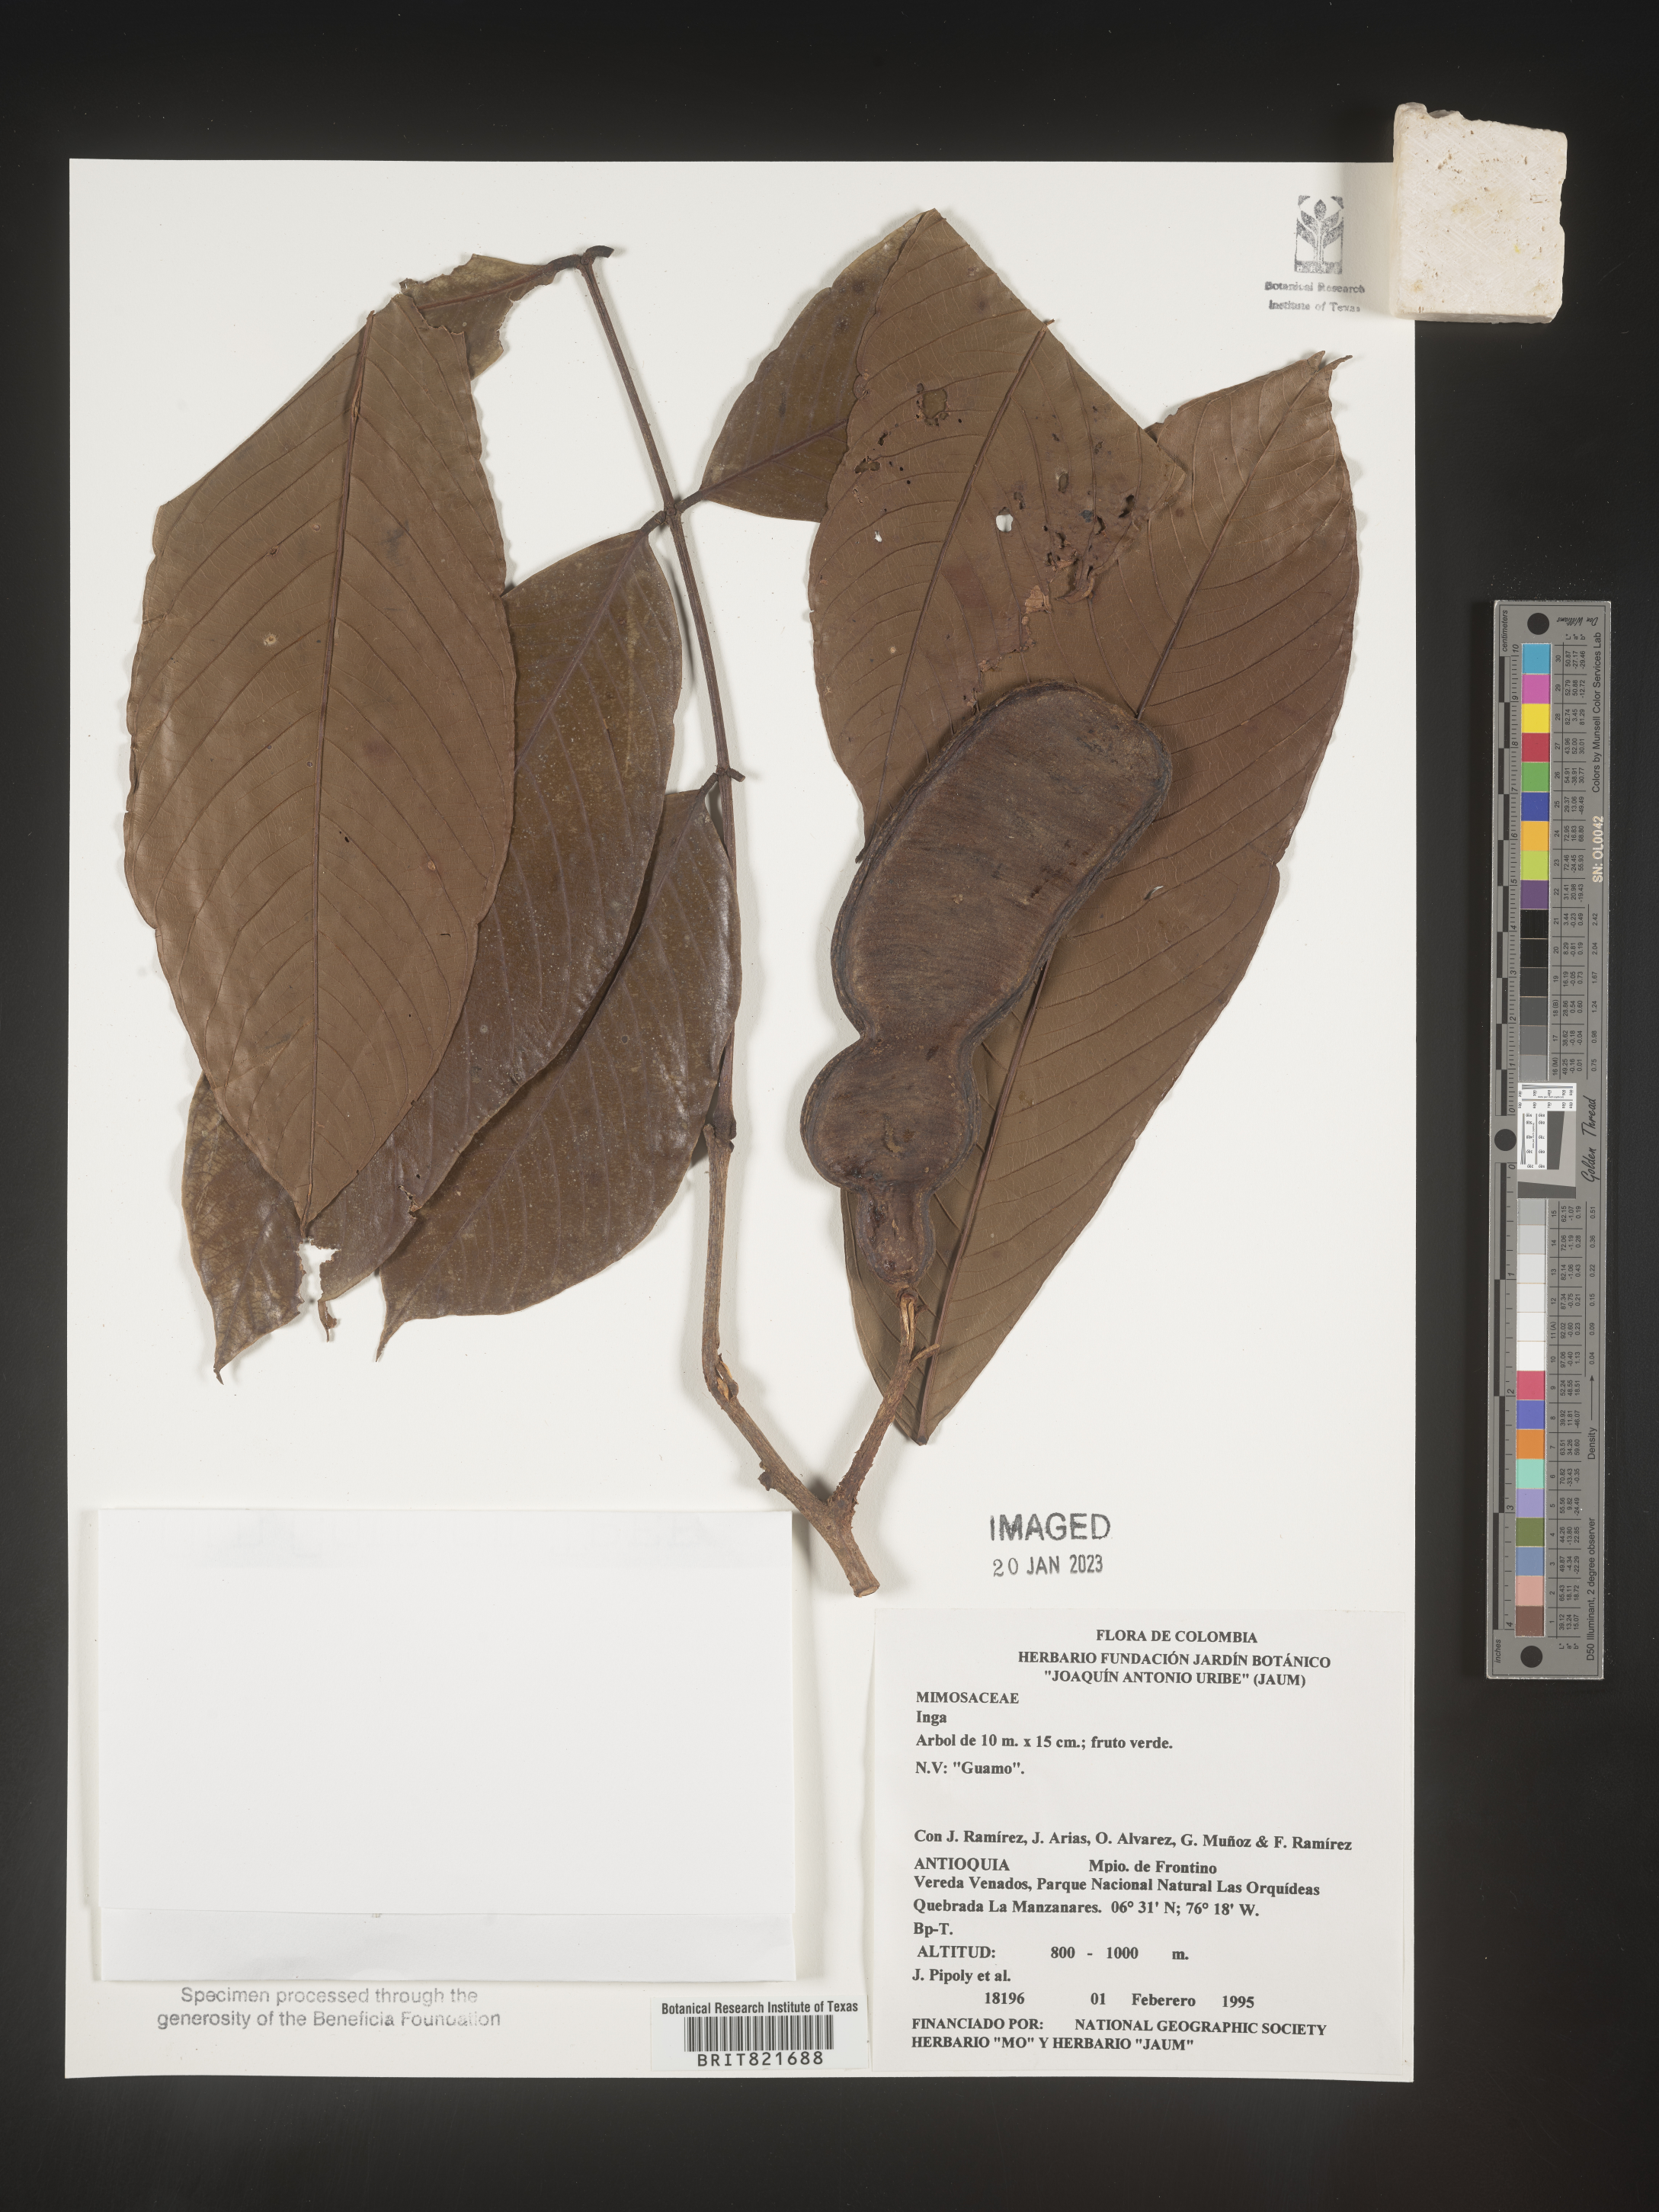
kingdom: Plantae
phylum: Tracheophyta
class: Magnoliopsida
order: Fabales
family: Fabaceae
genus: Inga
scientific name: Inga
